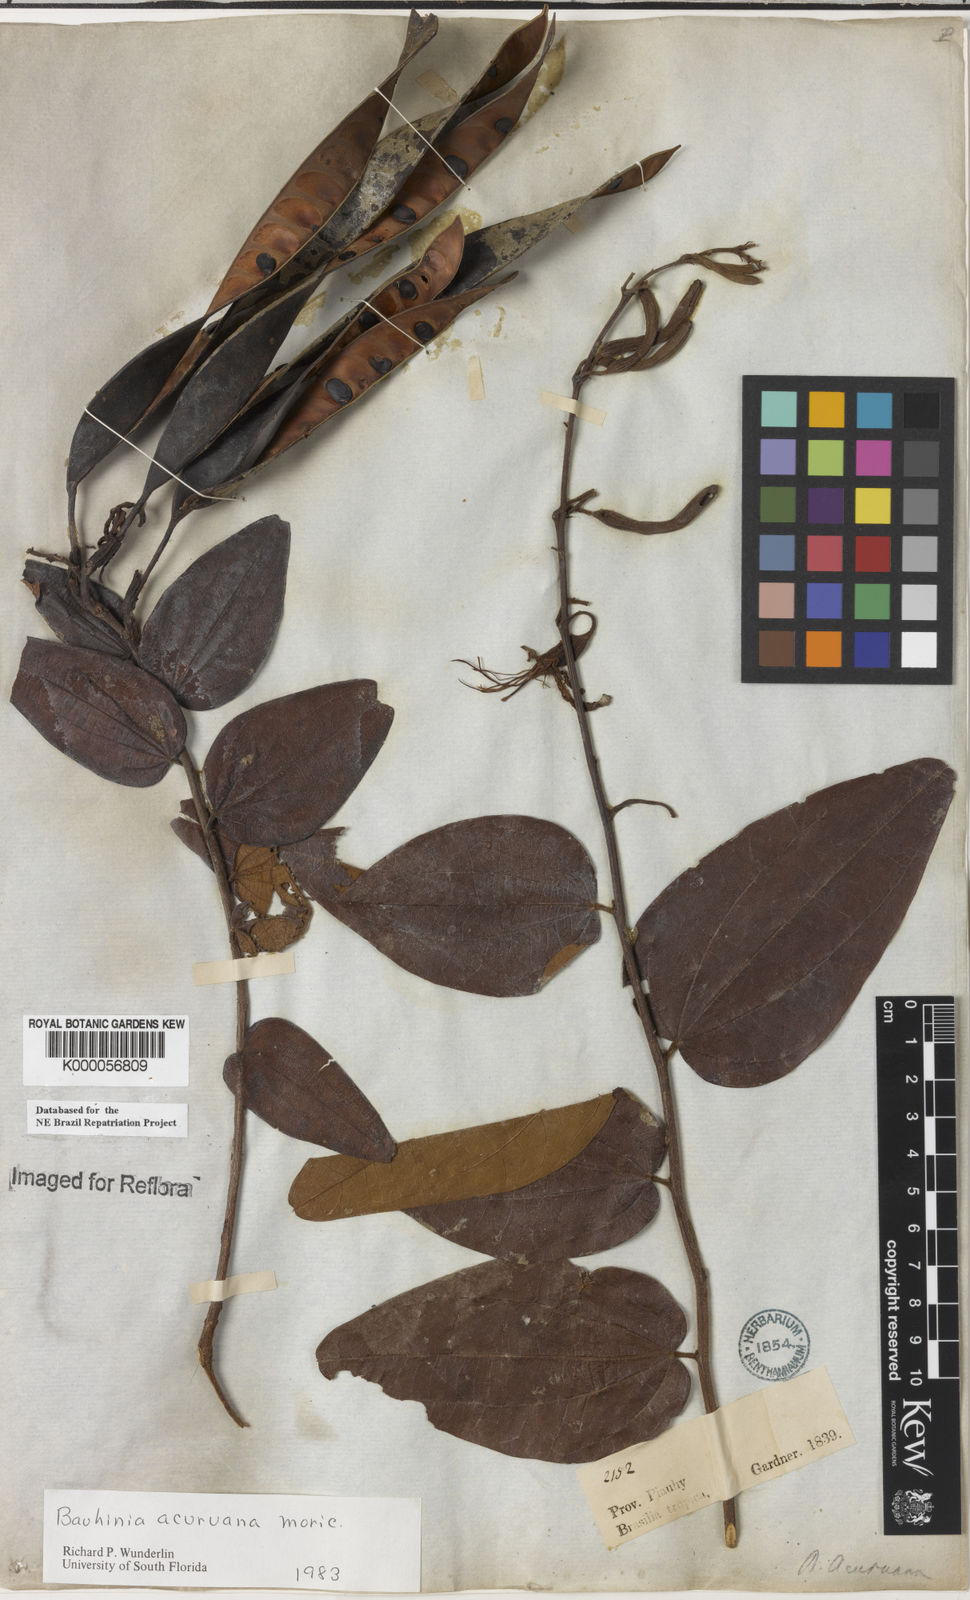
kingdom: Plantae
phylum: Tracheophyta
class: Magnoliopsida
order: Fabales
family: Fabaceae
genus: Bauhinia
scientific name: Bauhinia acuruana
